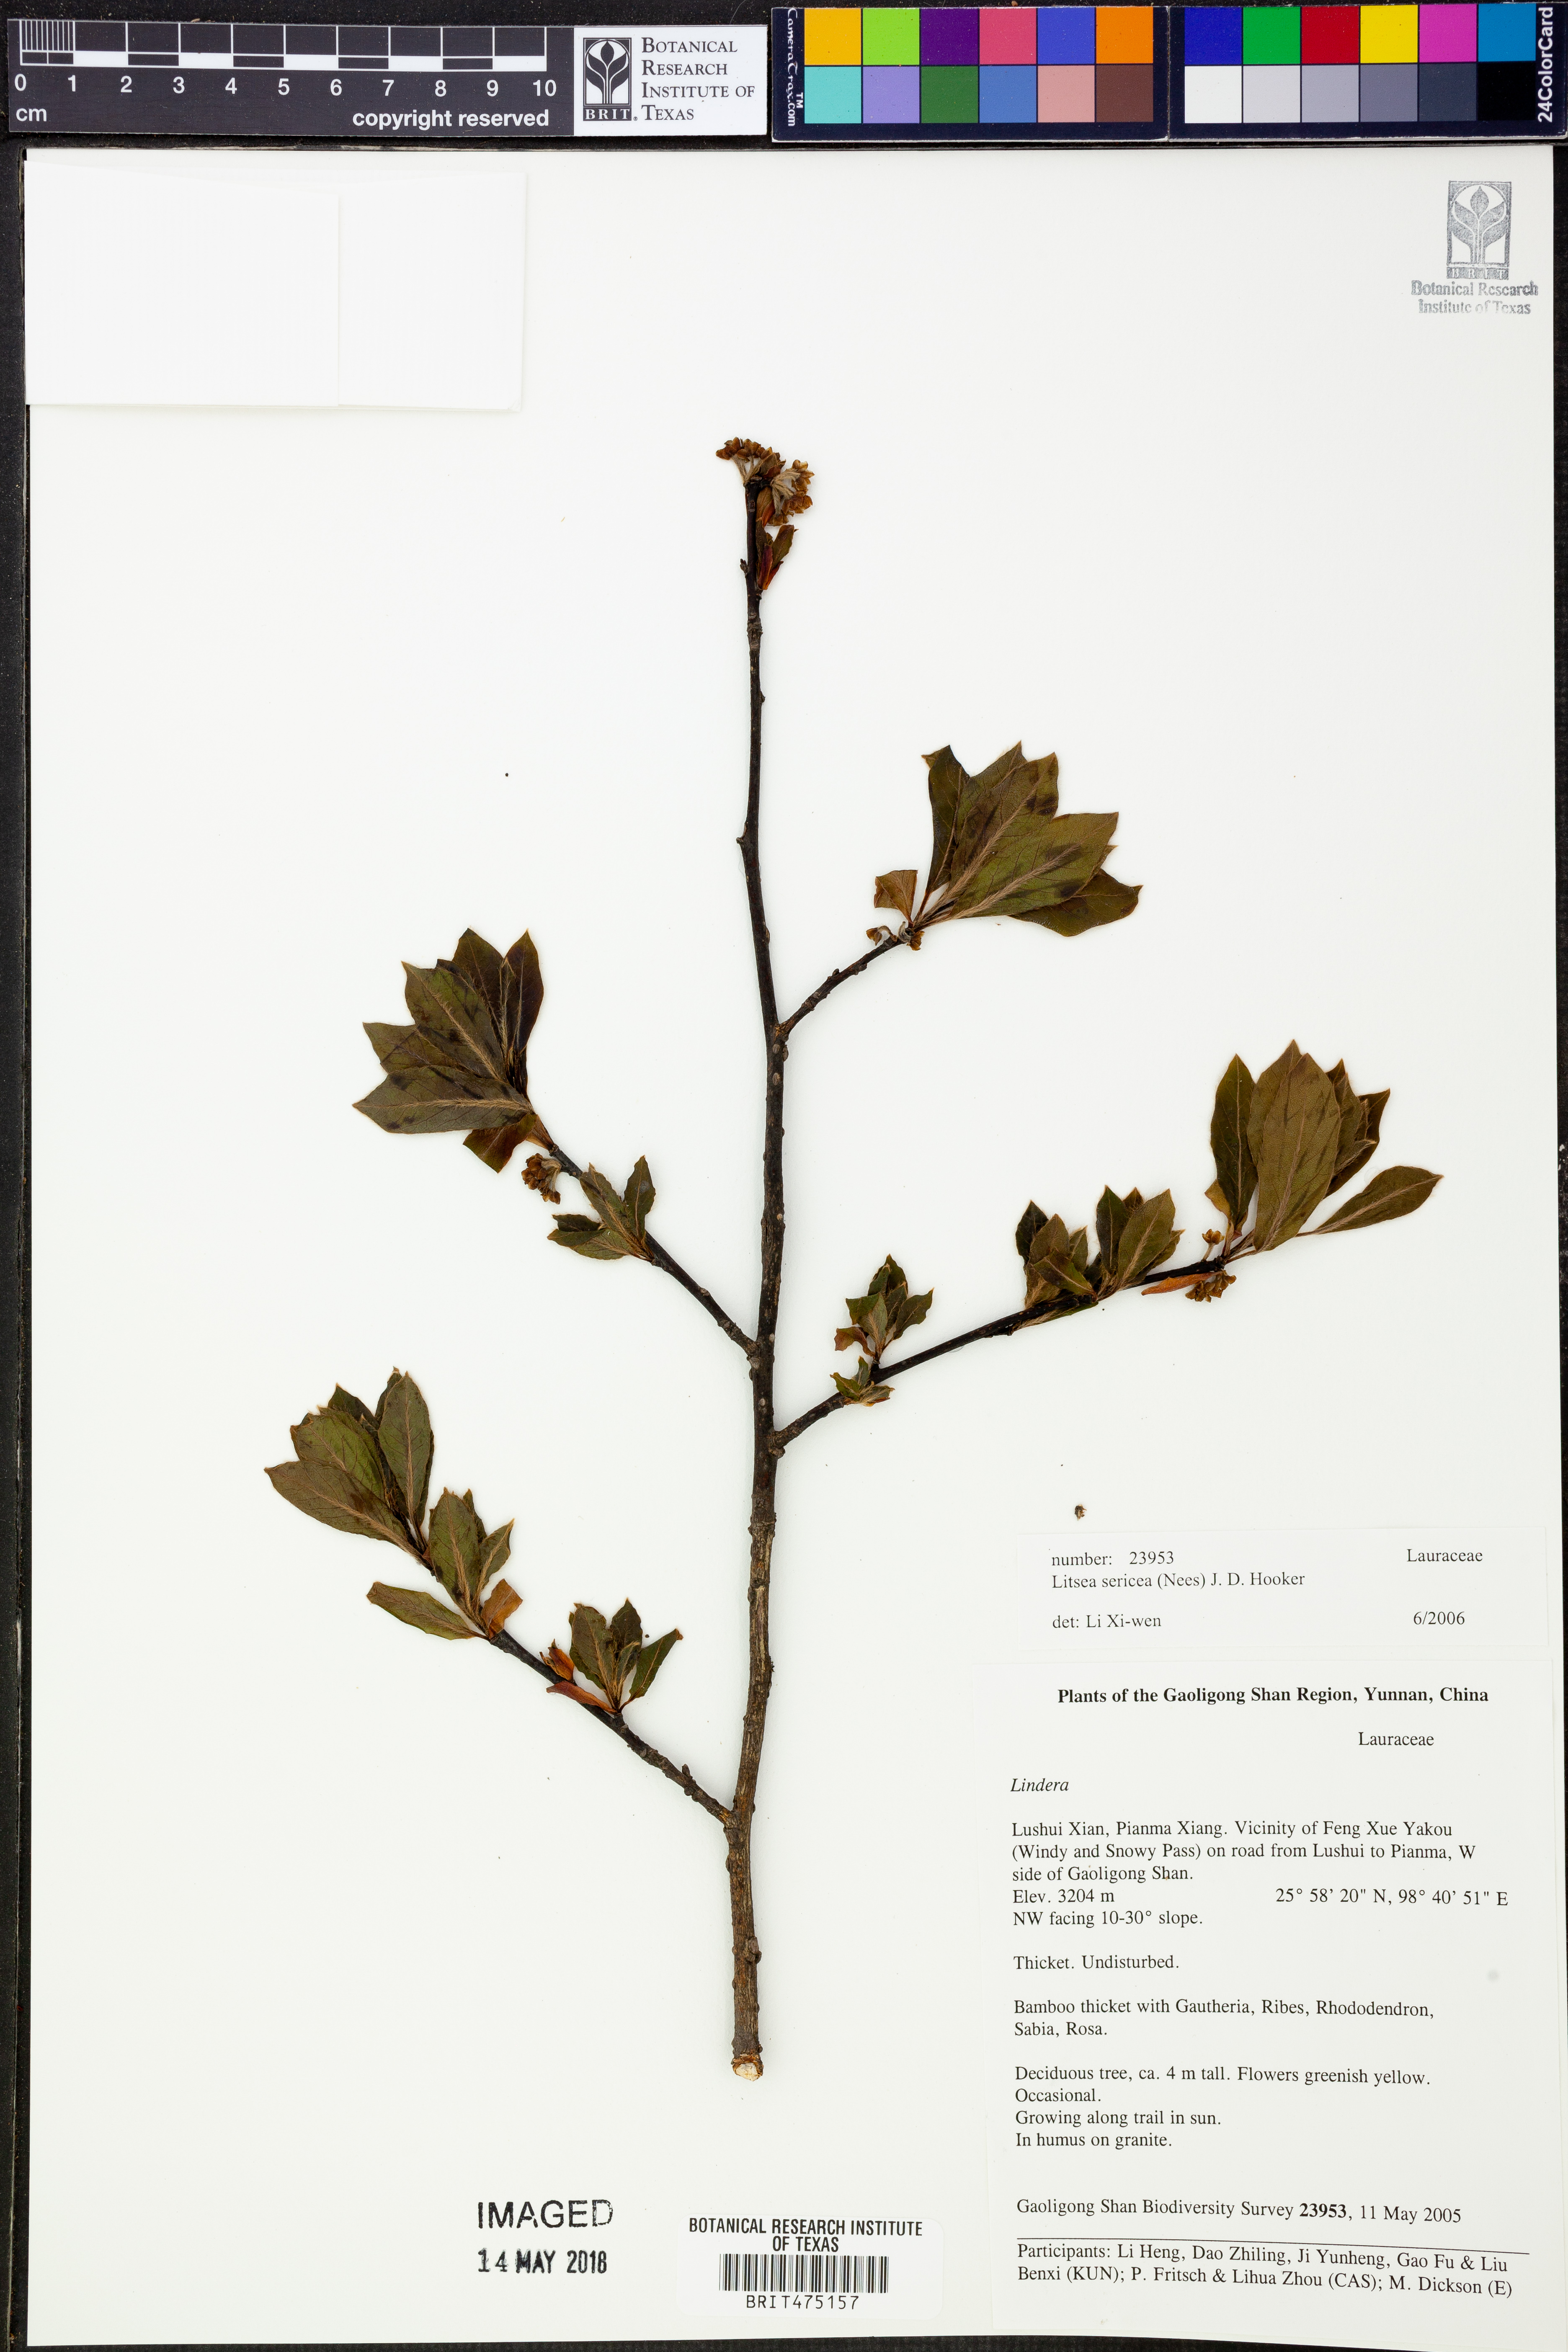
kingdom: Plantae
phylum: Tracheophyta
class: Magnoliopsida
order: Laurales
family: Lauraceae
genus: Litsea
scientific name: Litsea sericea
